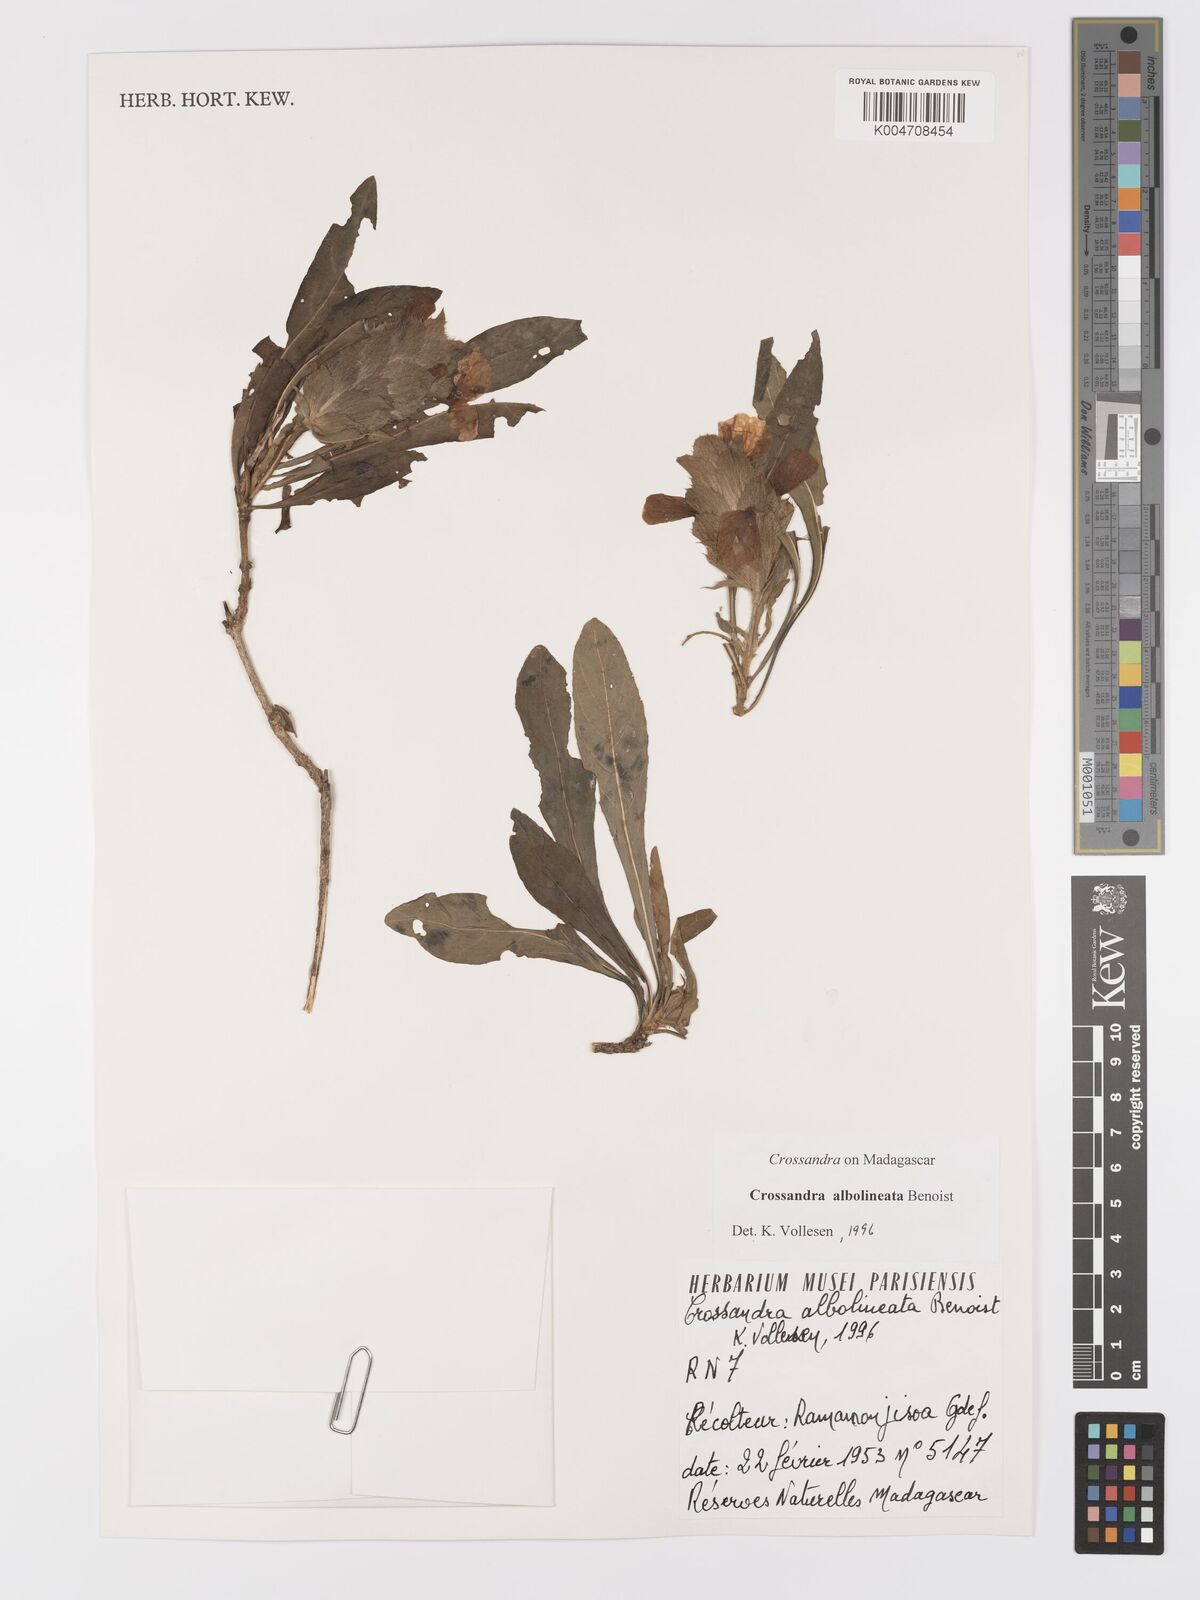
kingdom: Plantae
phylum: Tracheophyta
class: Magnoliopsida
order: Lamiales
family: Acanthaceae
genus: Crossandra
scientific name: Crossandra albolineata
